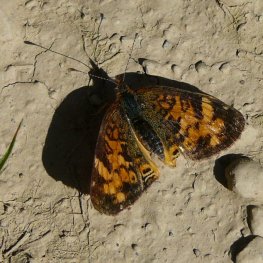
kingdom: Animalia
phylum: Arthropoda
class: Insecta
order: Lepidoptera
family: Nymphalidae
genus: Phyciodes
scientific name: Phyciodes tharos
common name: Northern Crescent
